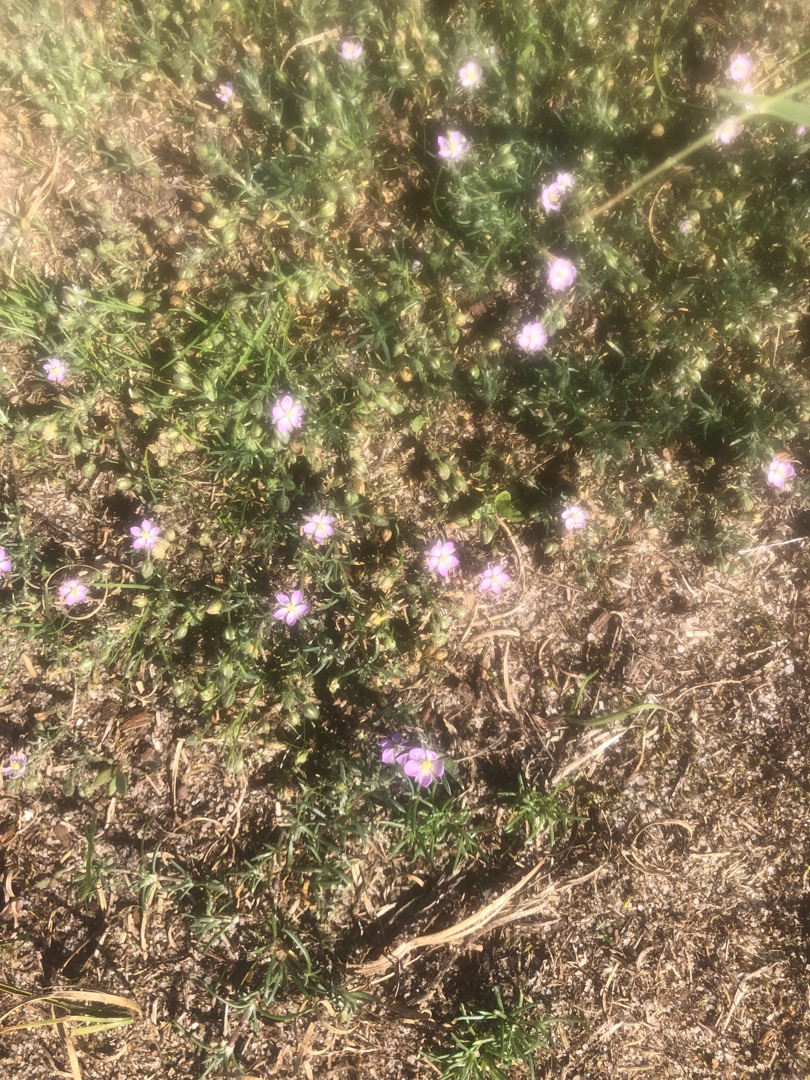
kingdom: Plantae
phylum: Tracheophyta
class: Magnoliopsida
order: Caryophyllales
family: Caryophyllaceae
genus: Spergularia
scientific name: Spergularia
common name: Hindeknæslægten
